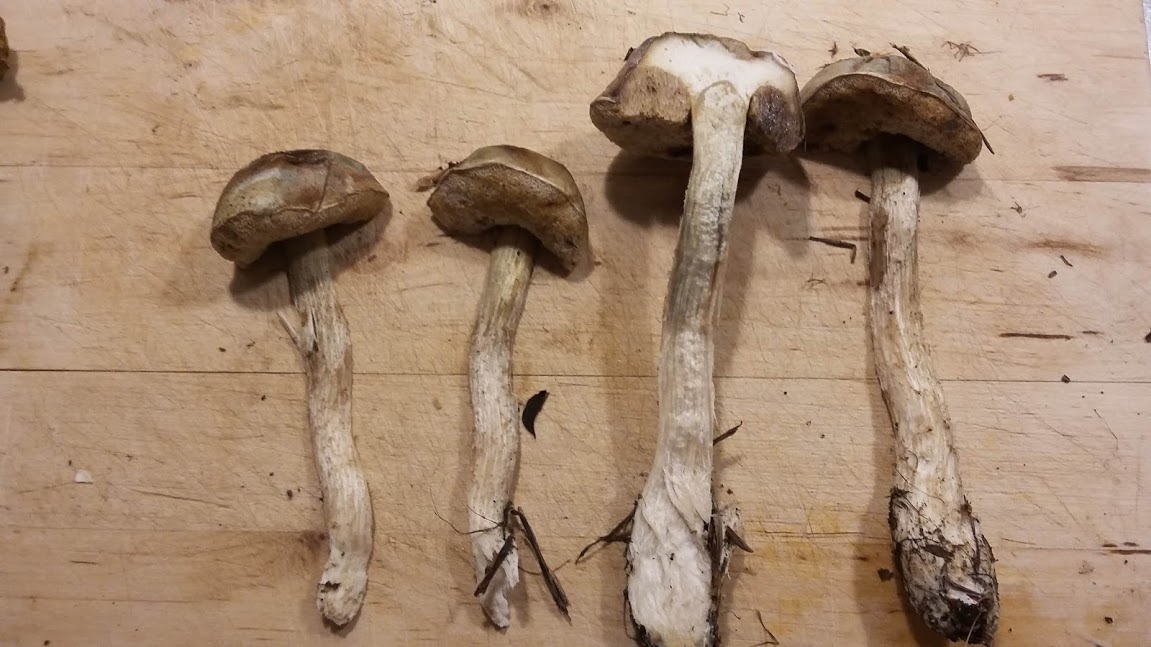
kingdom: Fungi
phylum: Basidiomycota
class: Agaricomycetes
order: Boletales
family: Boletaceae
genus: Leccinum
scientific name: Leccinum
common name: skælrørhat
